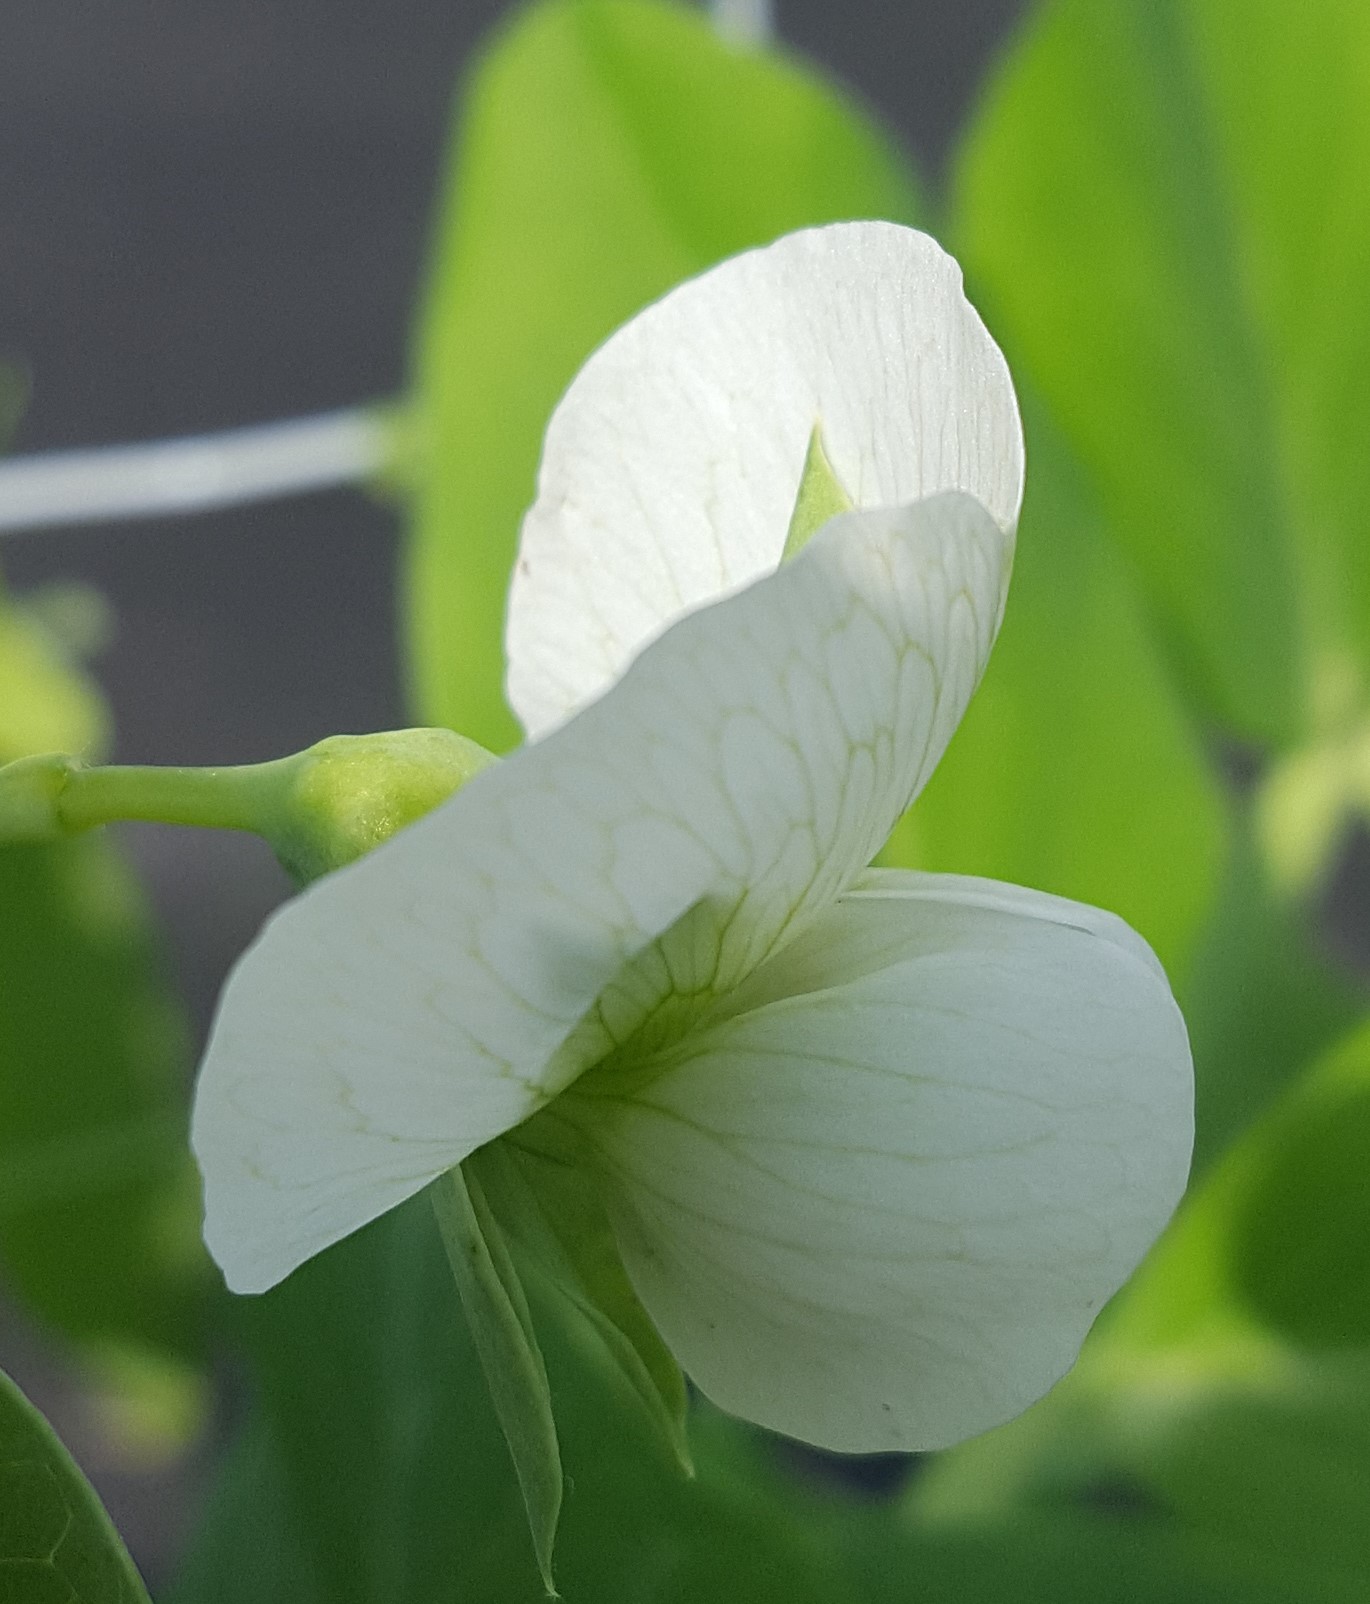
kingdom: Plantae
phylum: Tracheophyta
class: Magnoliopsida
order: Fabales
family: Fabaceae
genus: Lathyrus
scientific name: Lathyrus oleraceus
